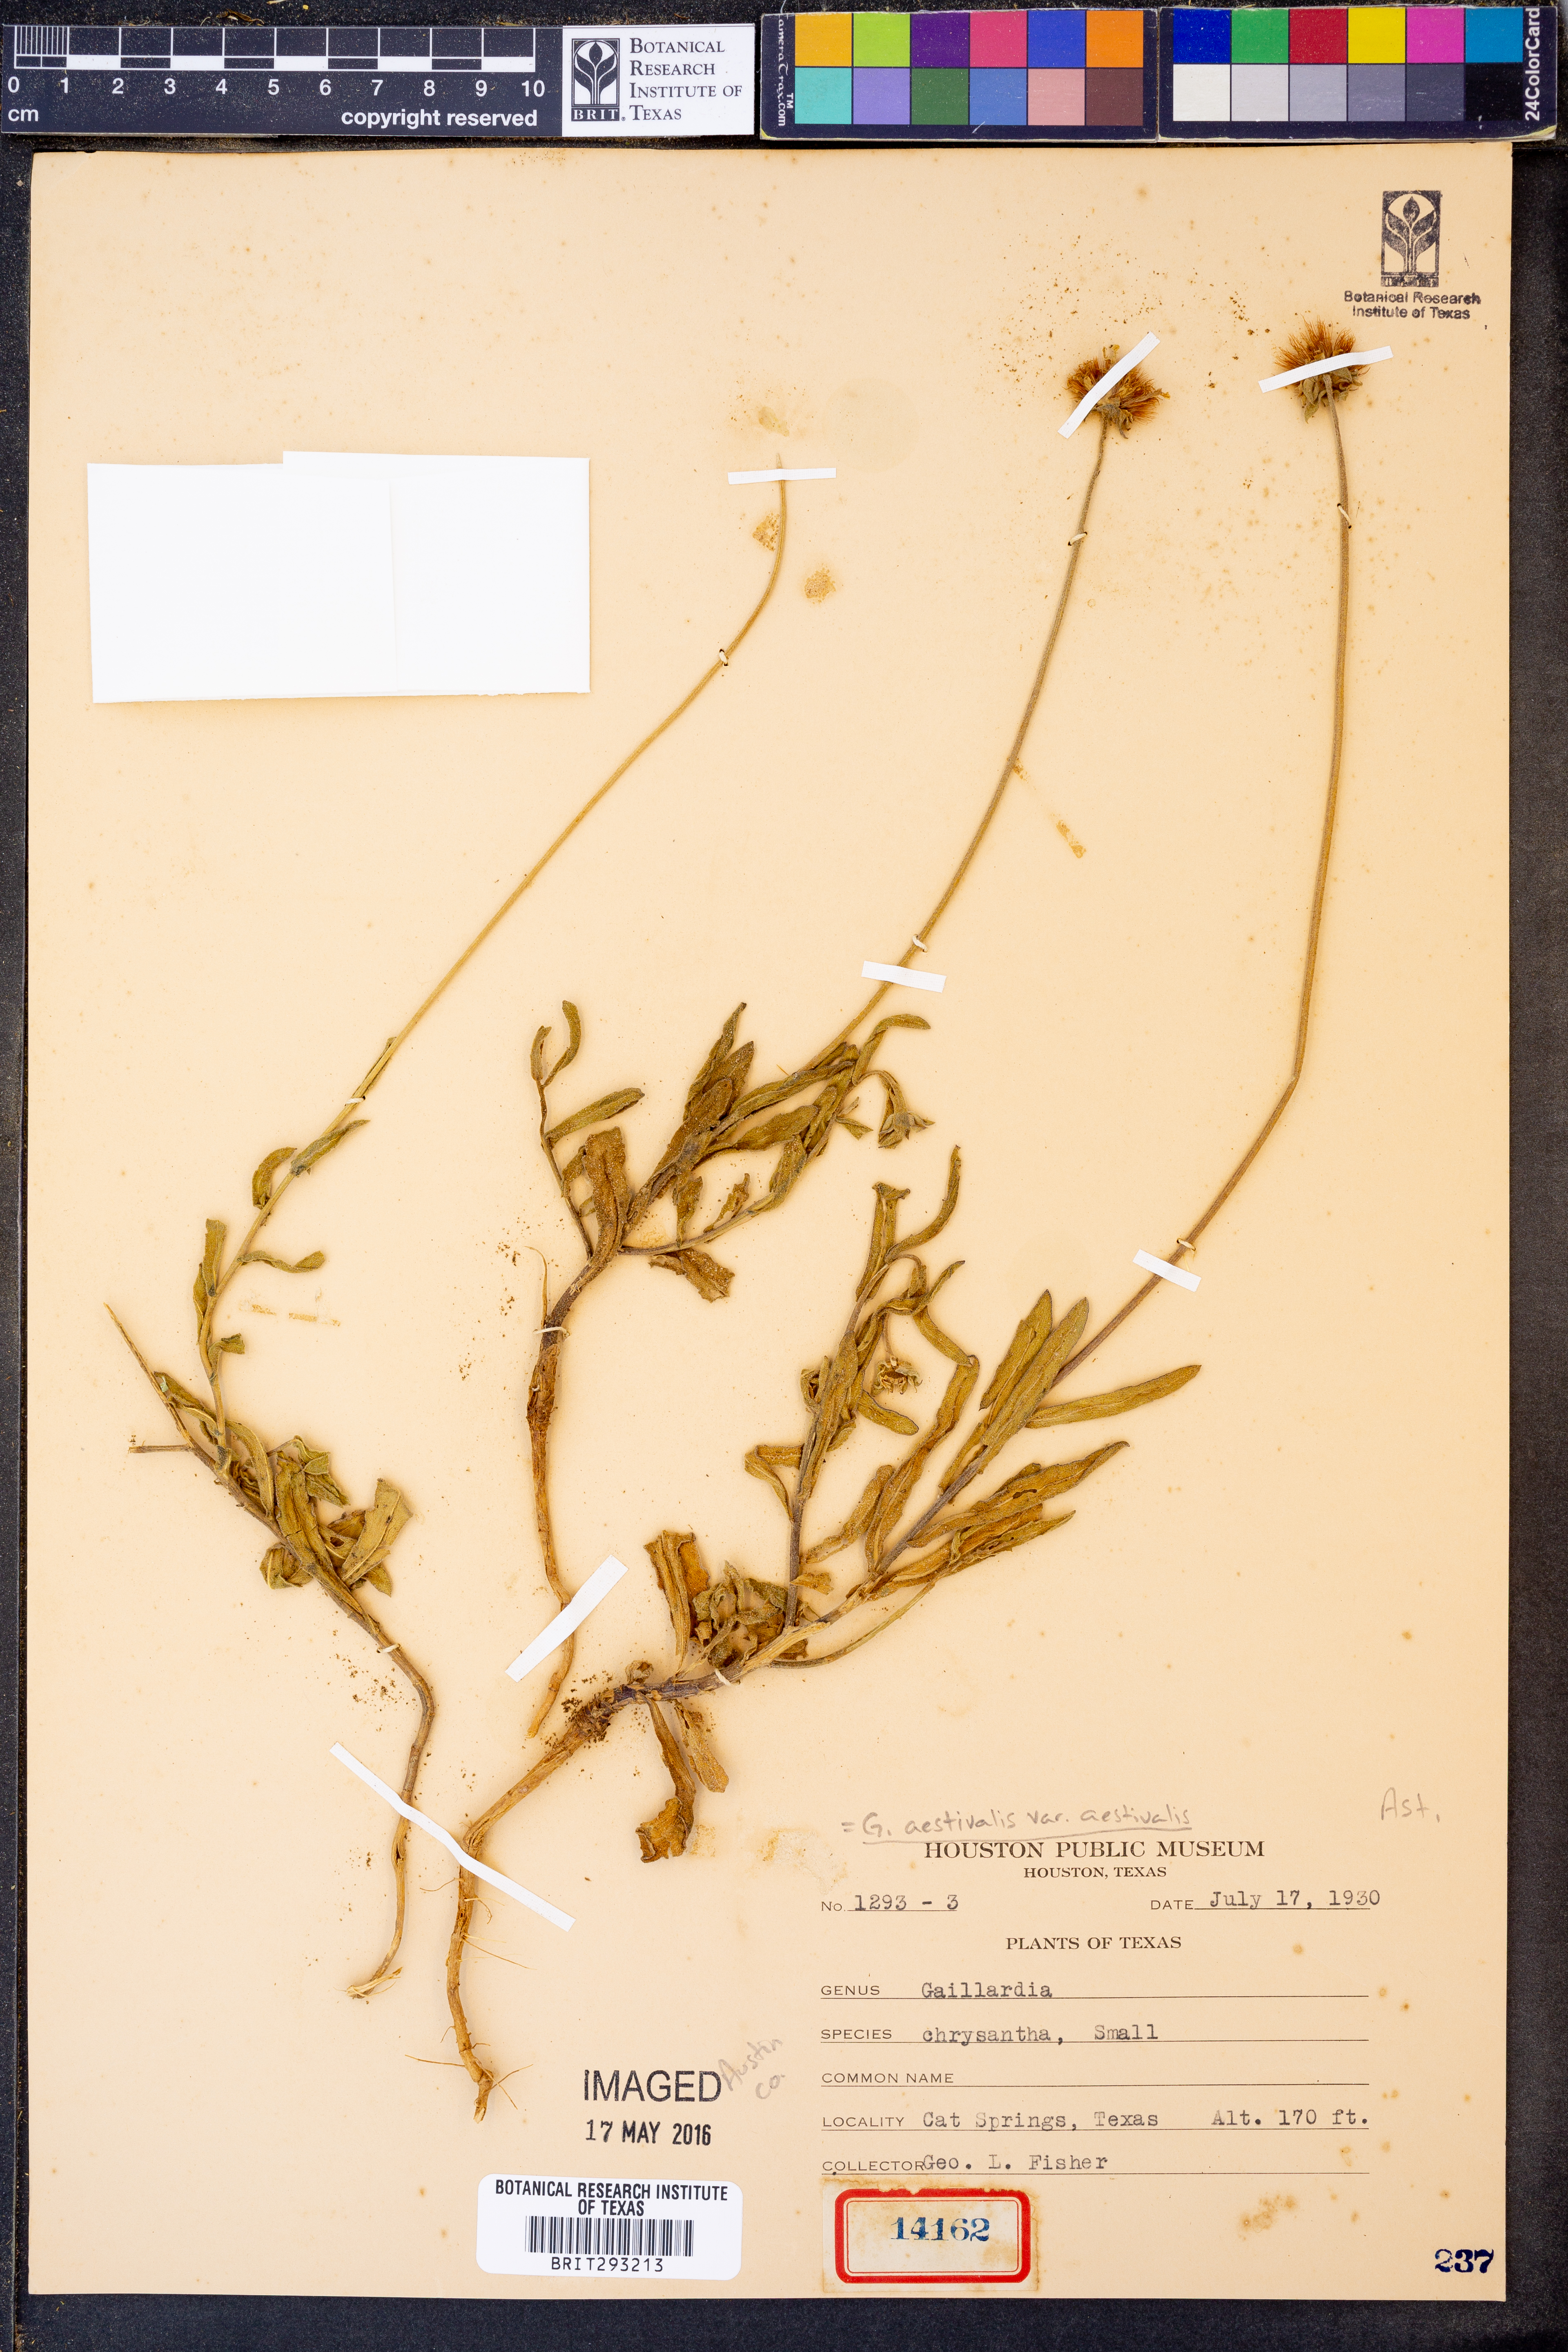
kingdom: Plantae
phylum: Tracheophyta
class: Magnoliopsida
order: Asterales
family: Asteraceae
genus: Gaillardia
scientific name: Gaillardia aestivalis
